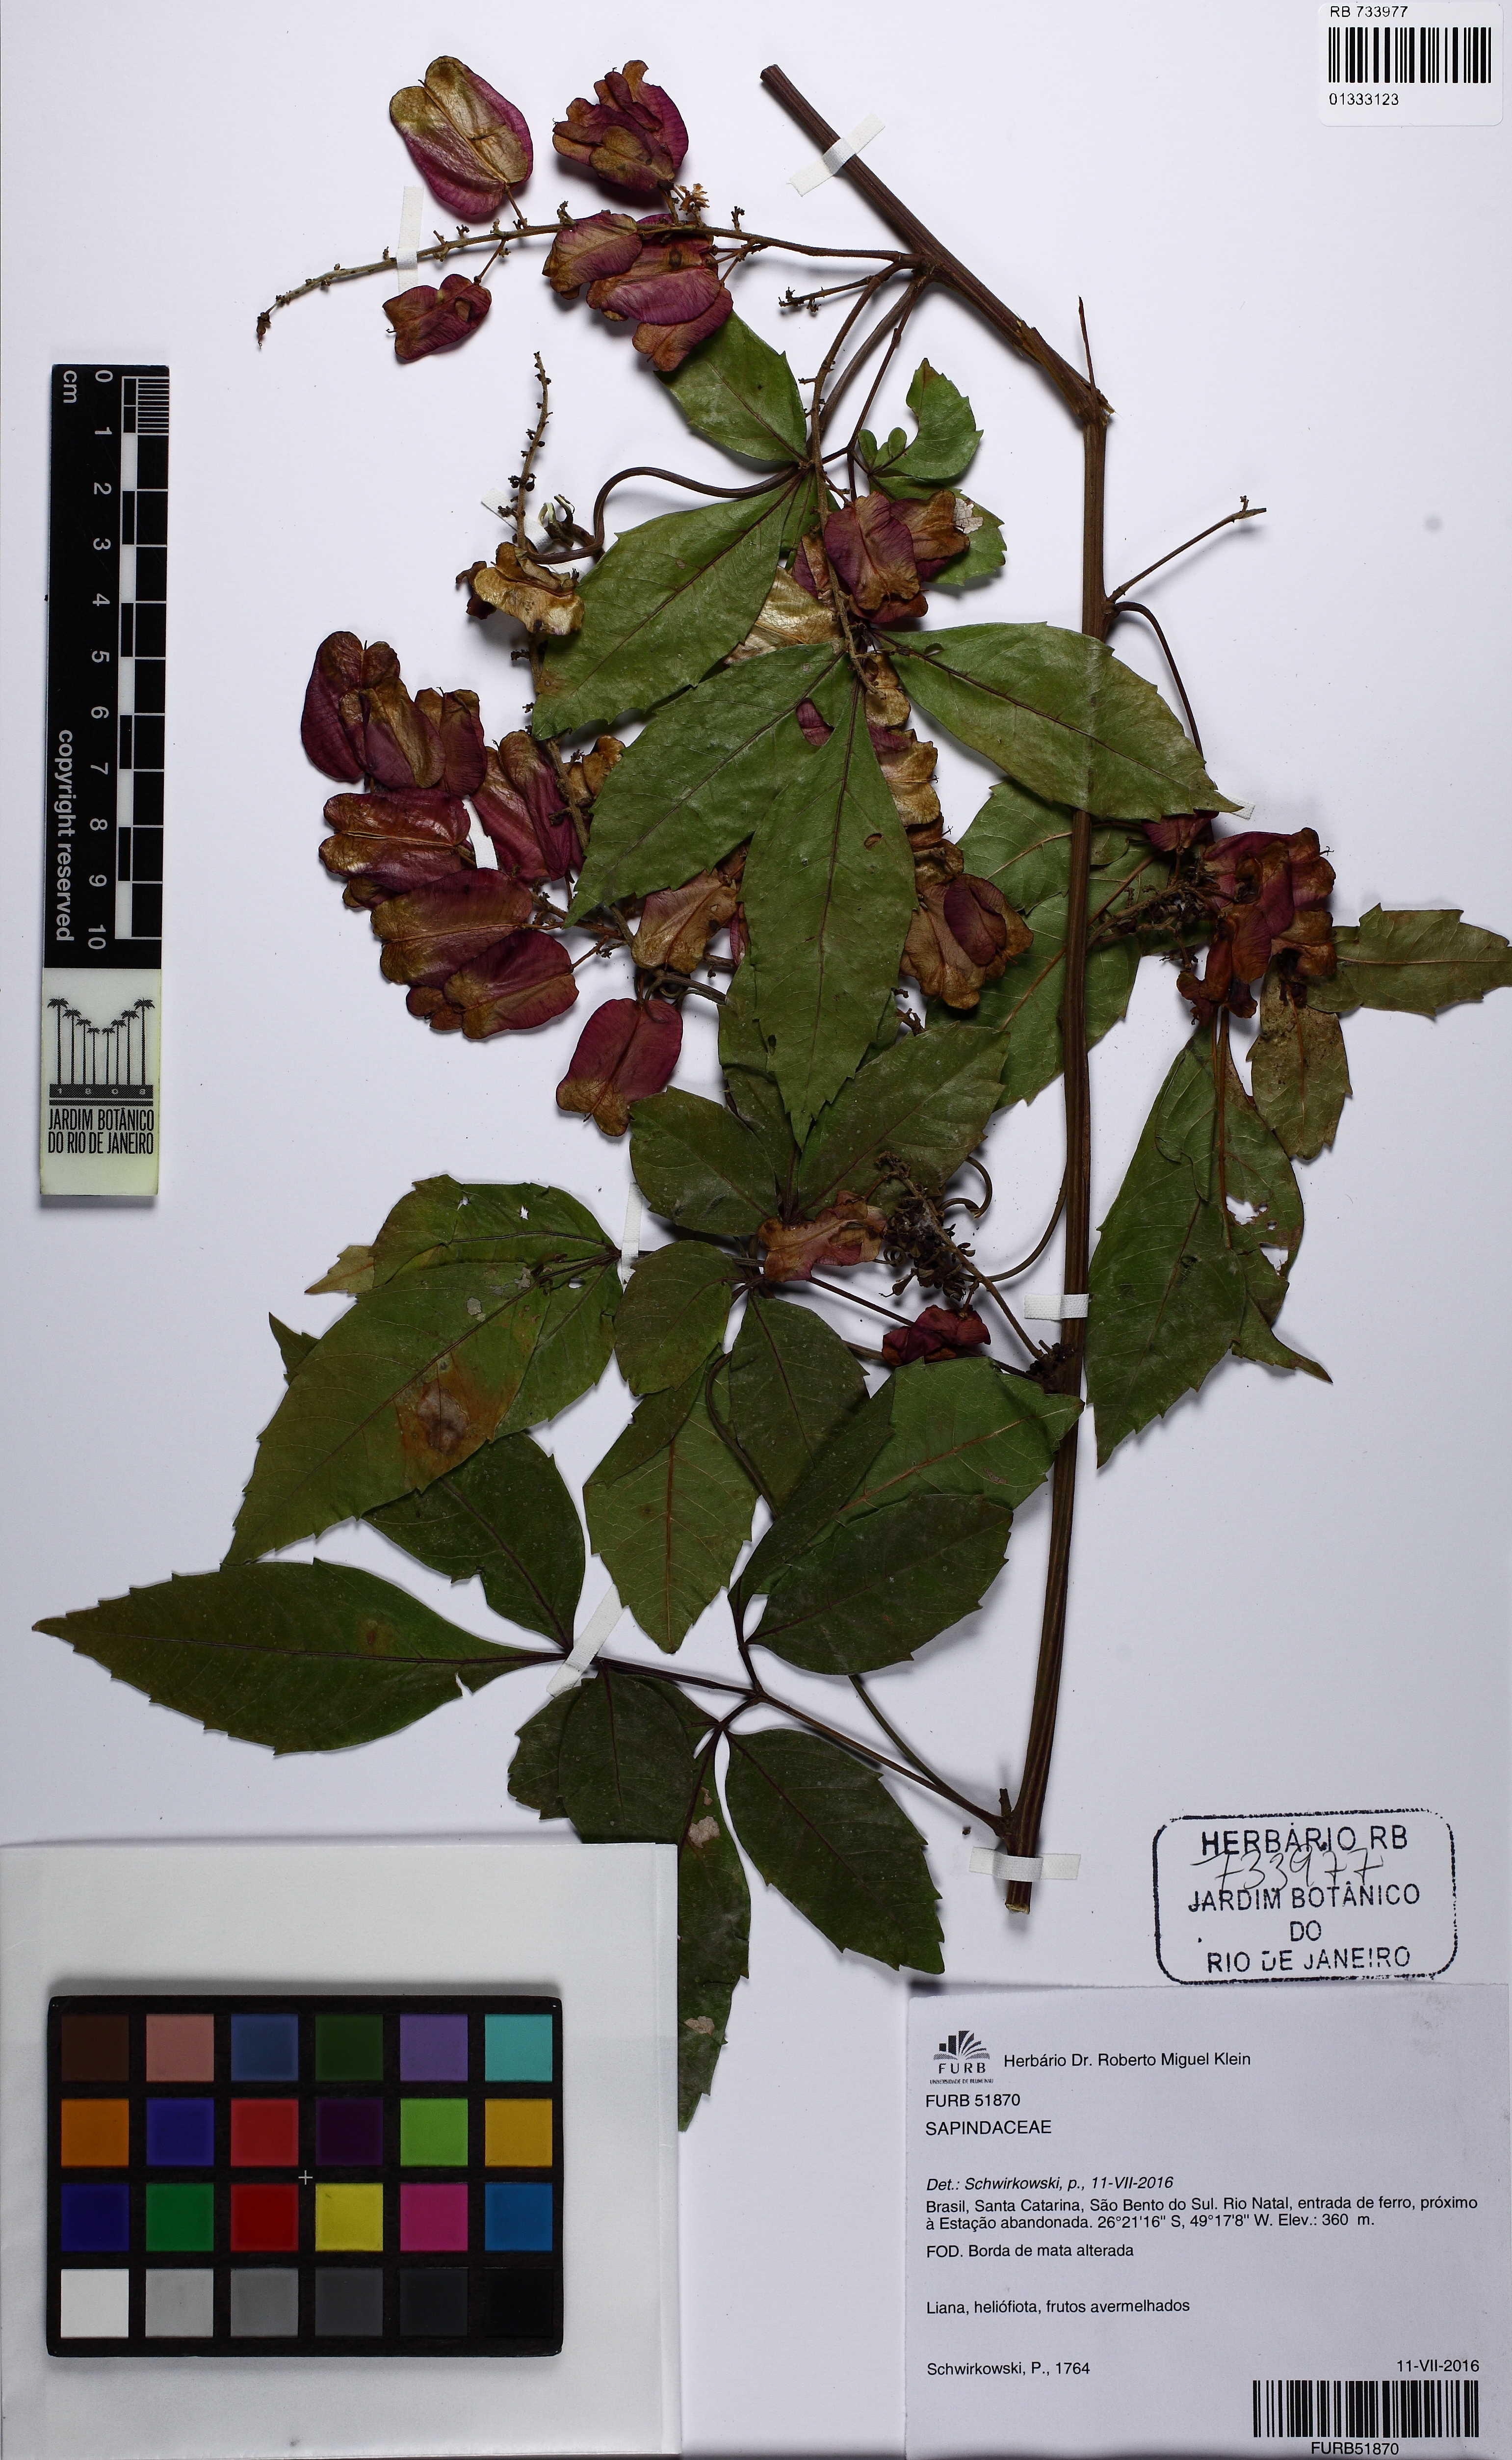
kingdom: Plantae
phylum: Tracheophyta
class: Magnoliopsida
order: Sapindales
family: Sapindaceae
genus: Serjania
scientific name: Serjania laruotteana
